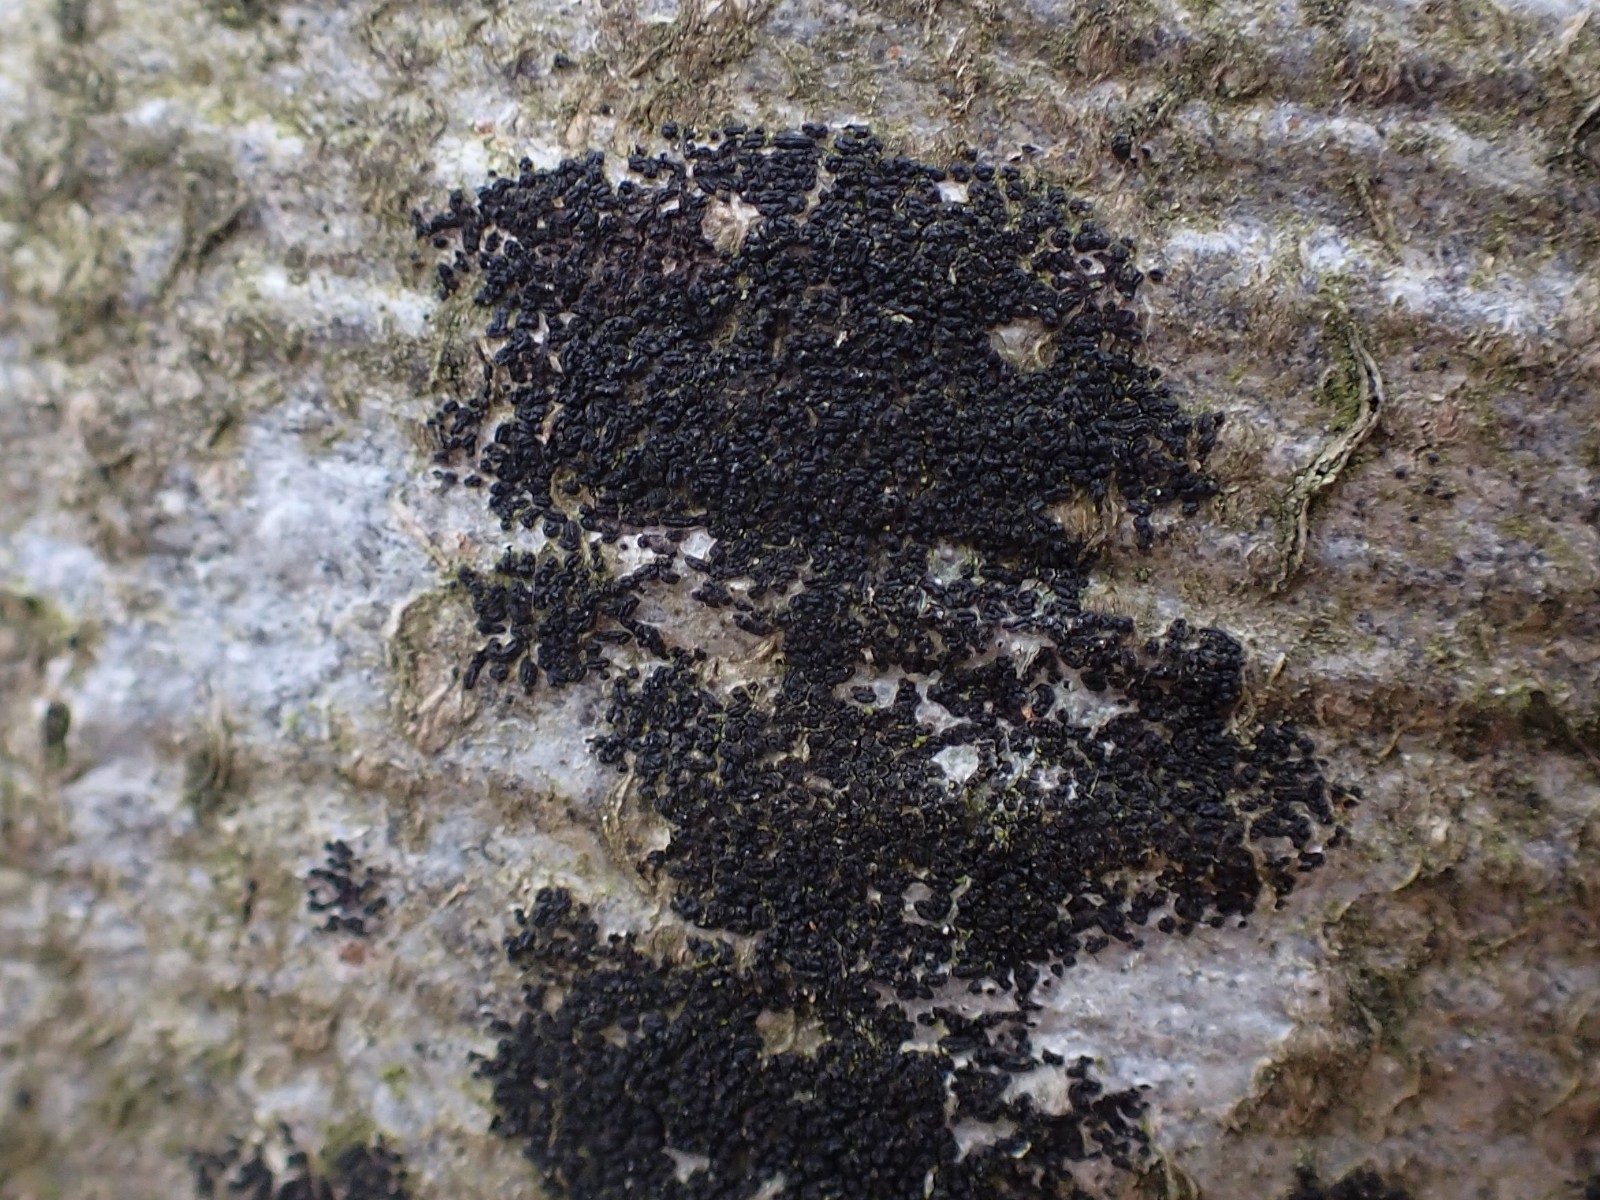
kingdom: Fungi
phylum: Ascomycota
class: Leotiomycetes
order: Rhytismatales
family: Ascodichaenaceae
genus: Ascodichaena
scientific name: Ascodichaena rugosa
